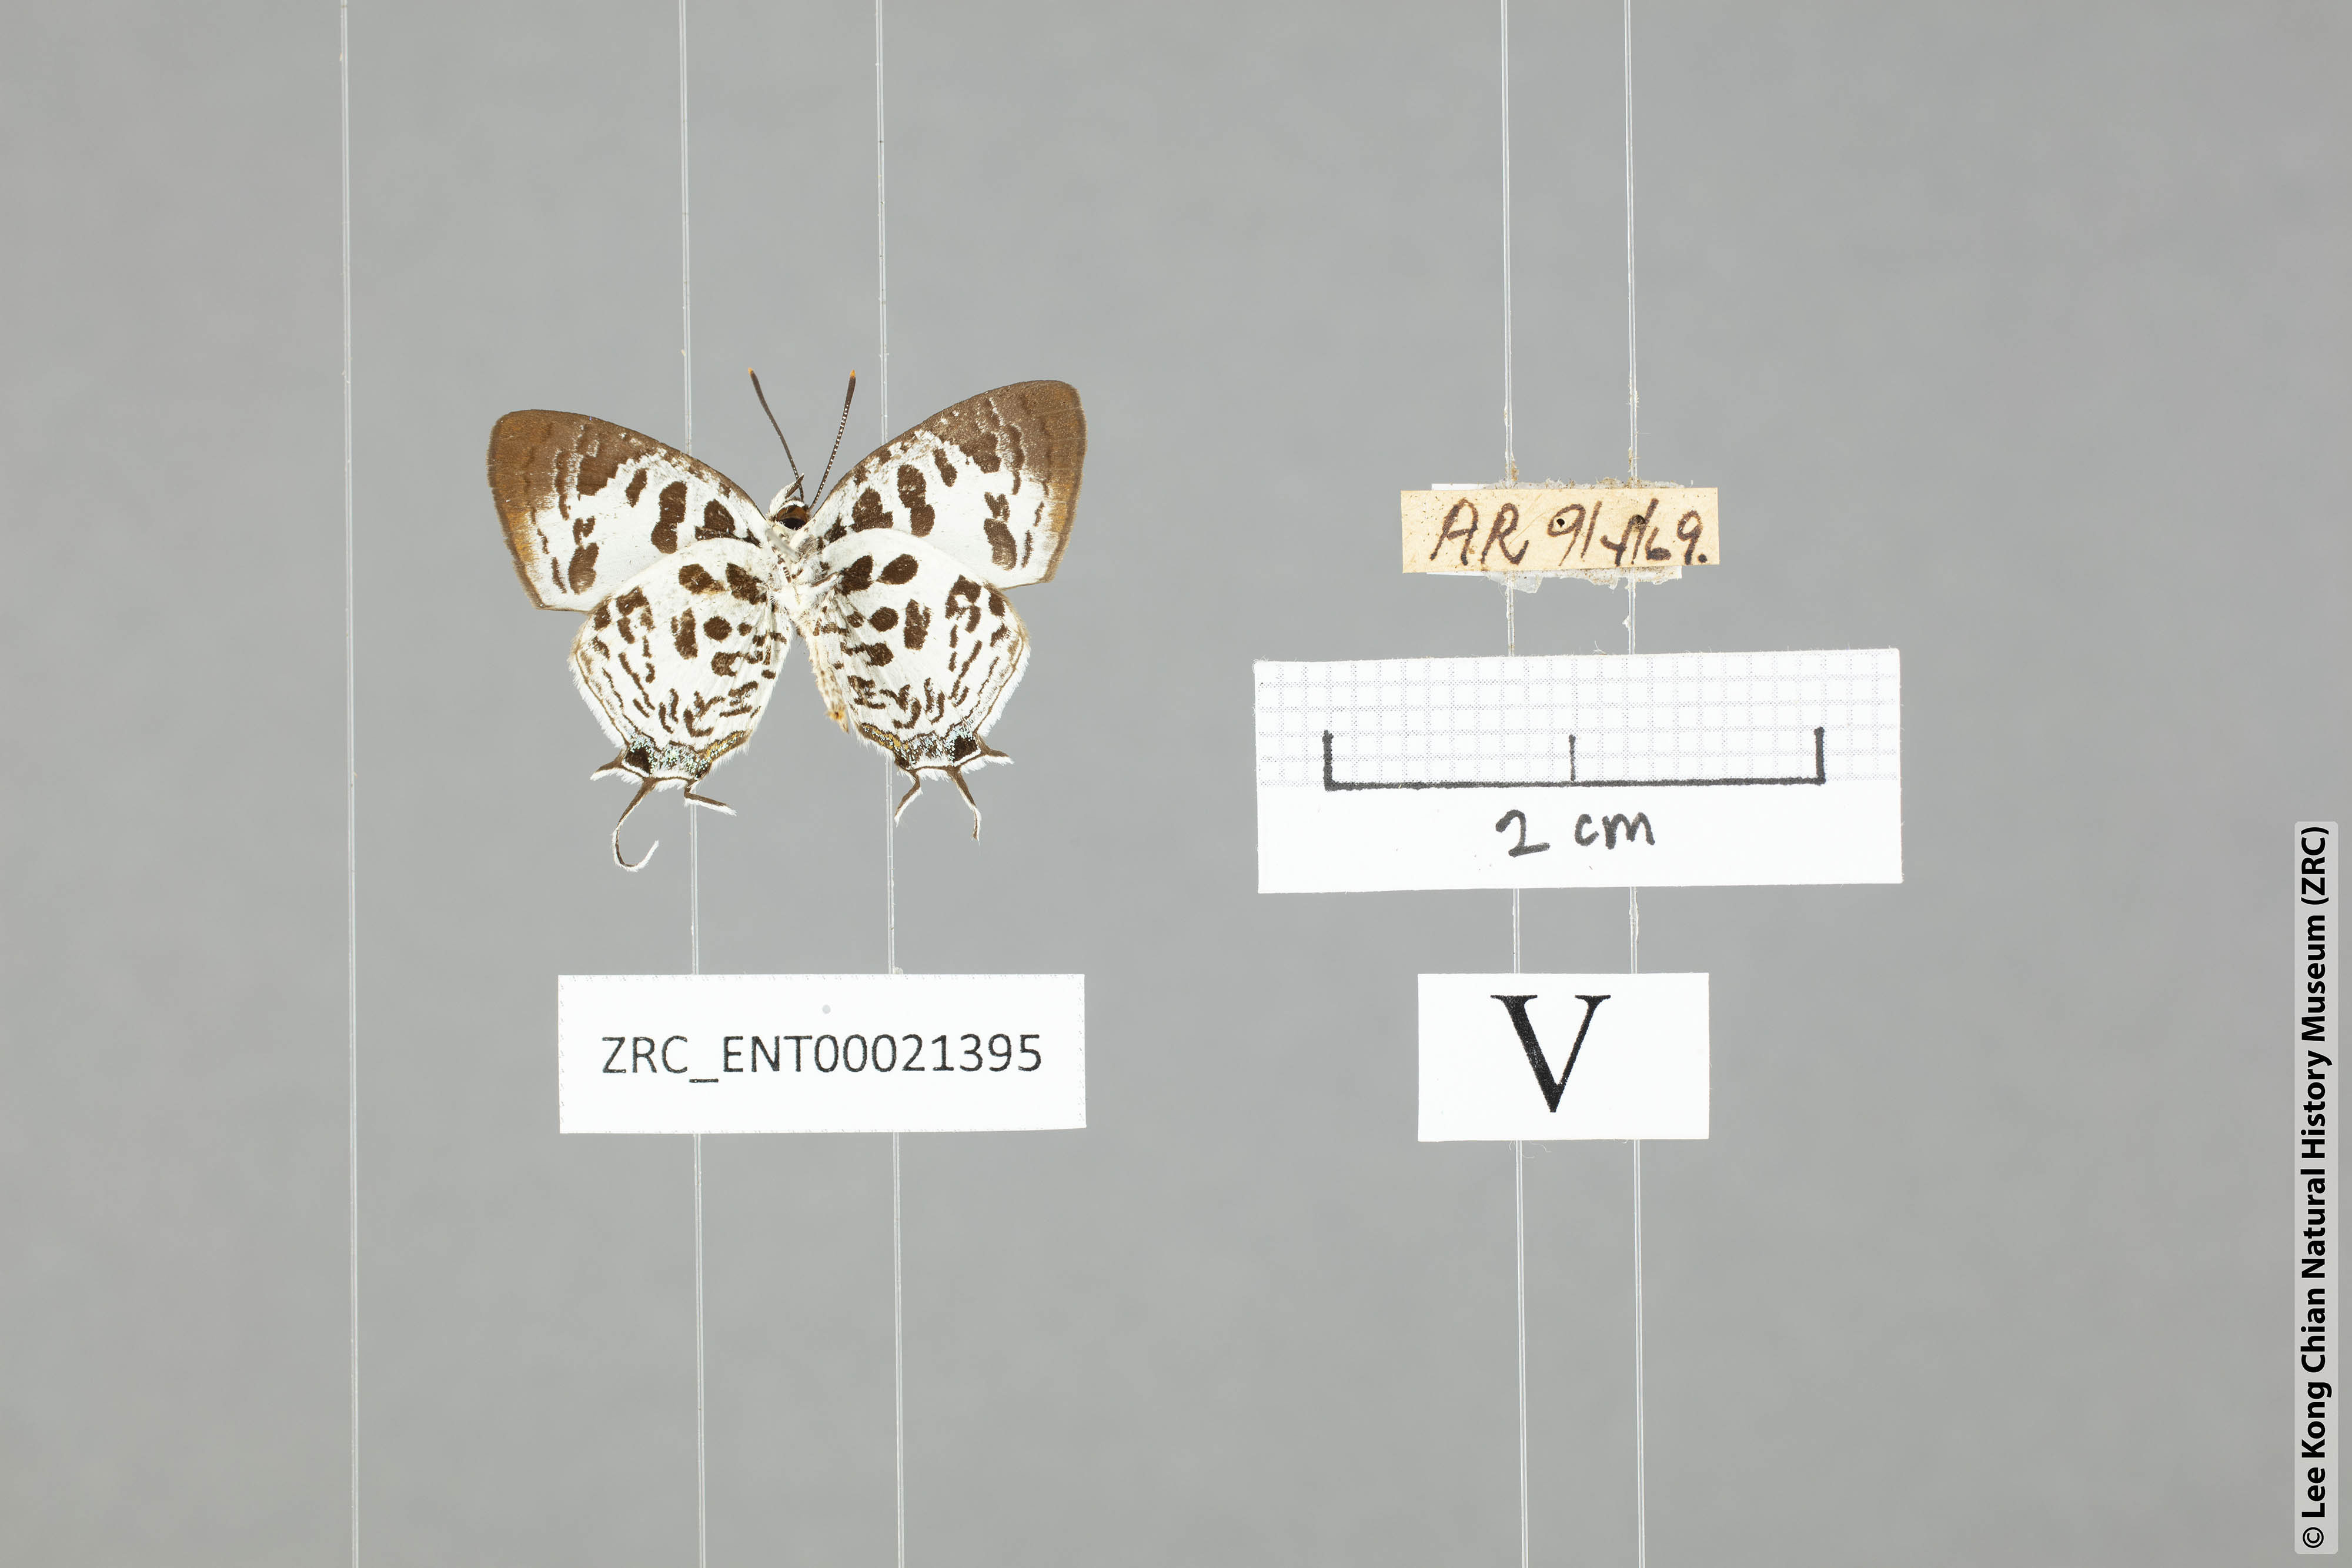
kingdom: Animalia
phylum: Arthropoda
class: Insecta
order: Lepidoptera
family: Lycaenidae
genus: Drupadia
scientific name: Drupadia scaeva
